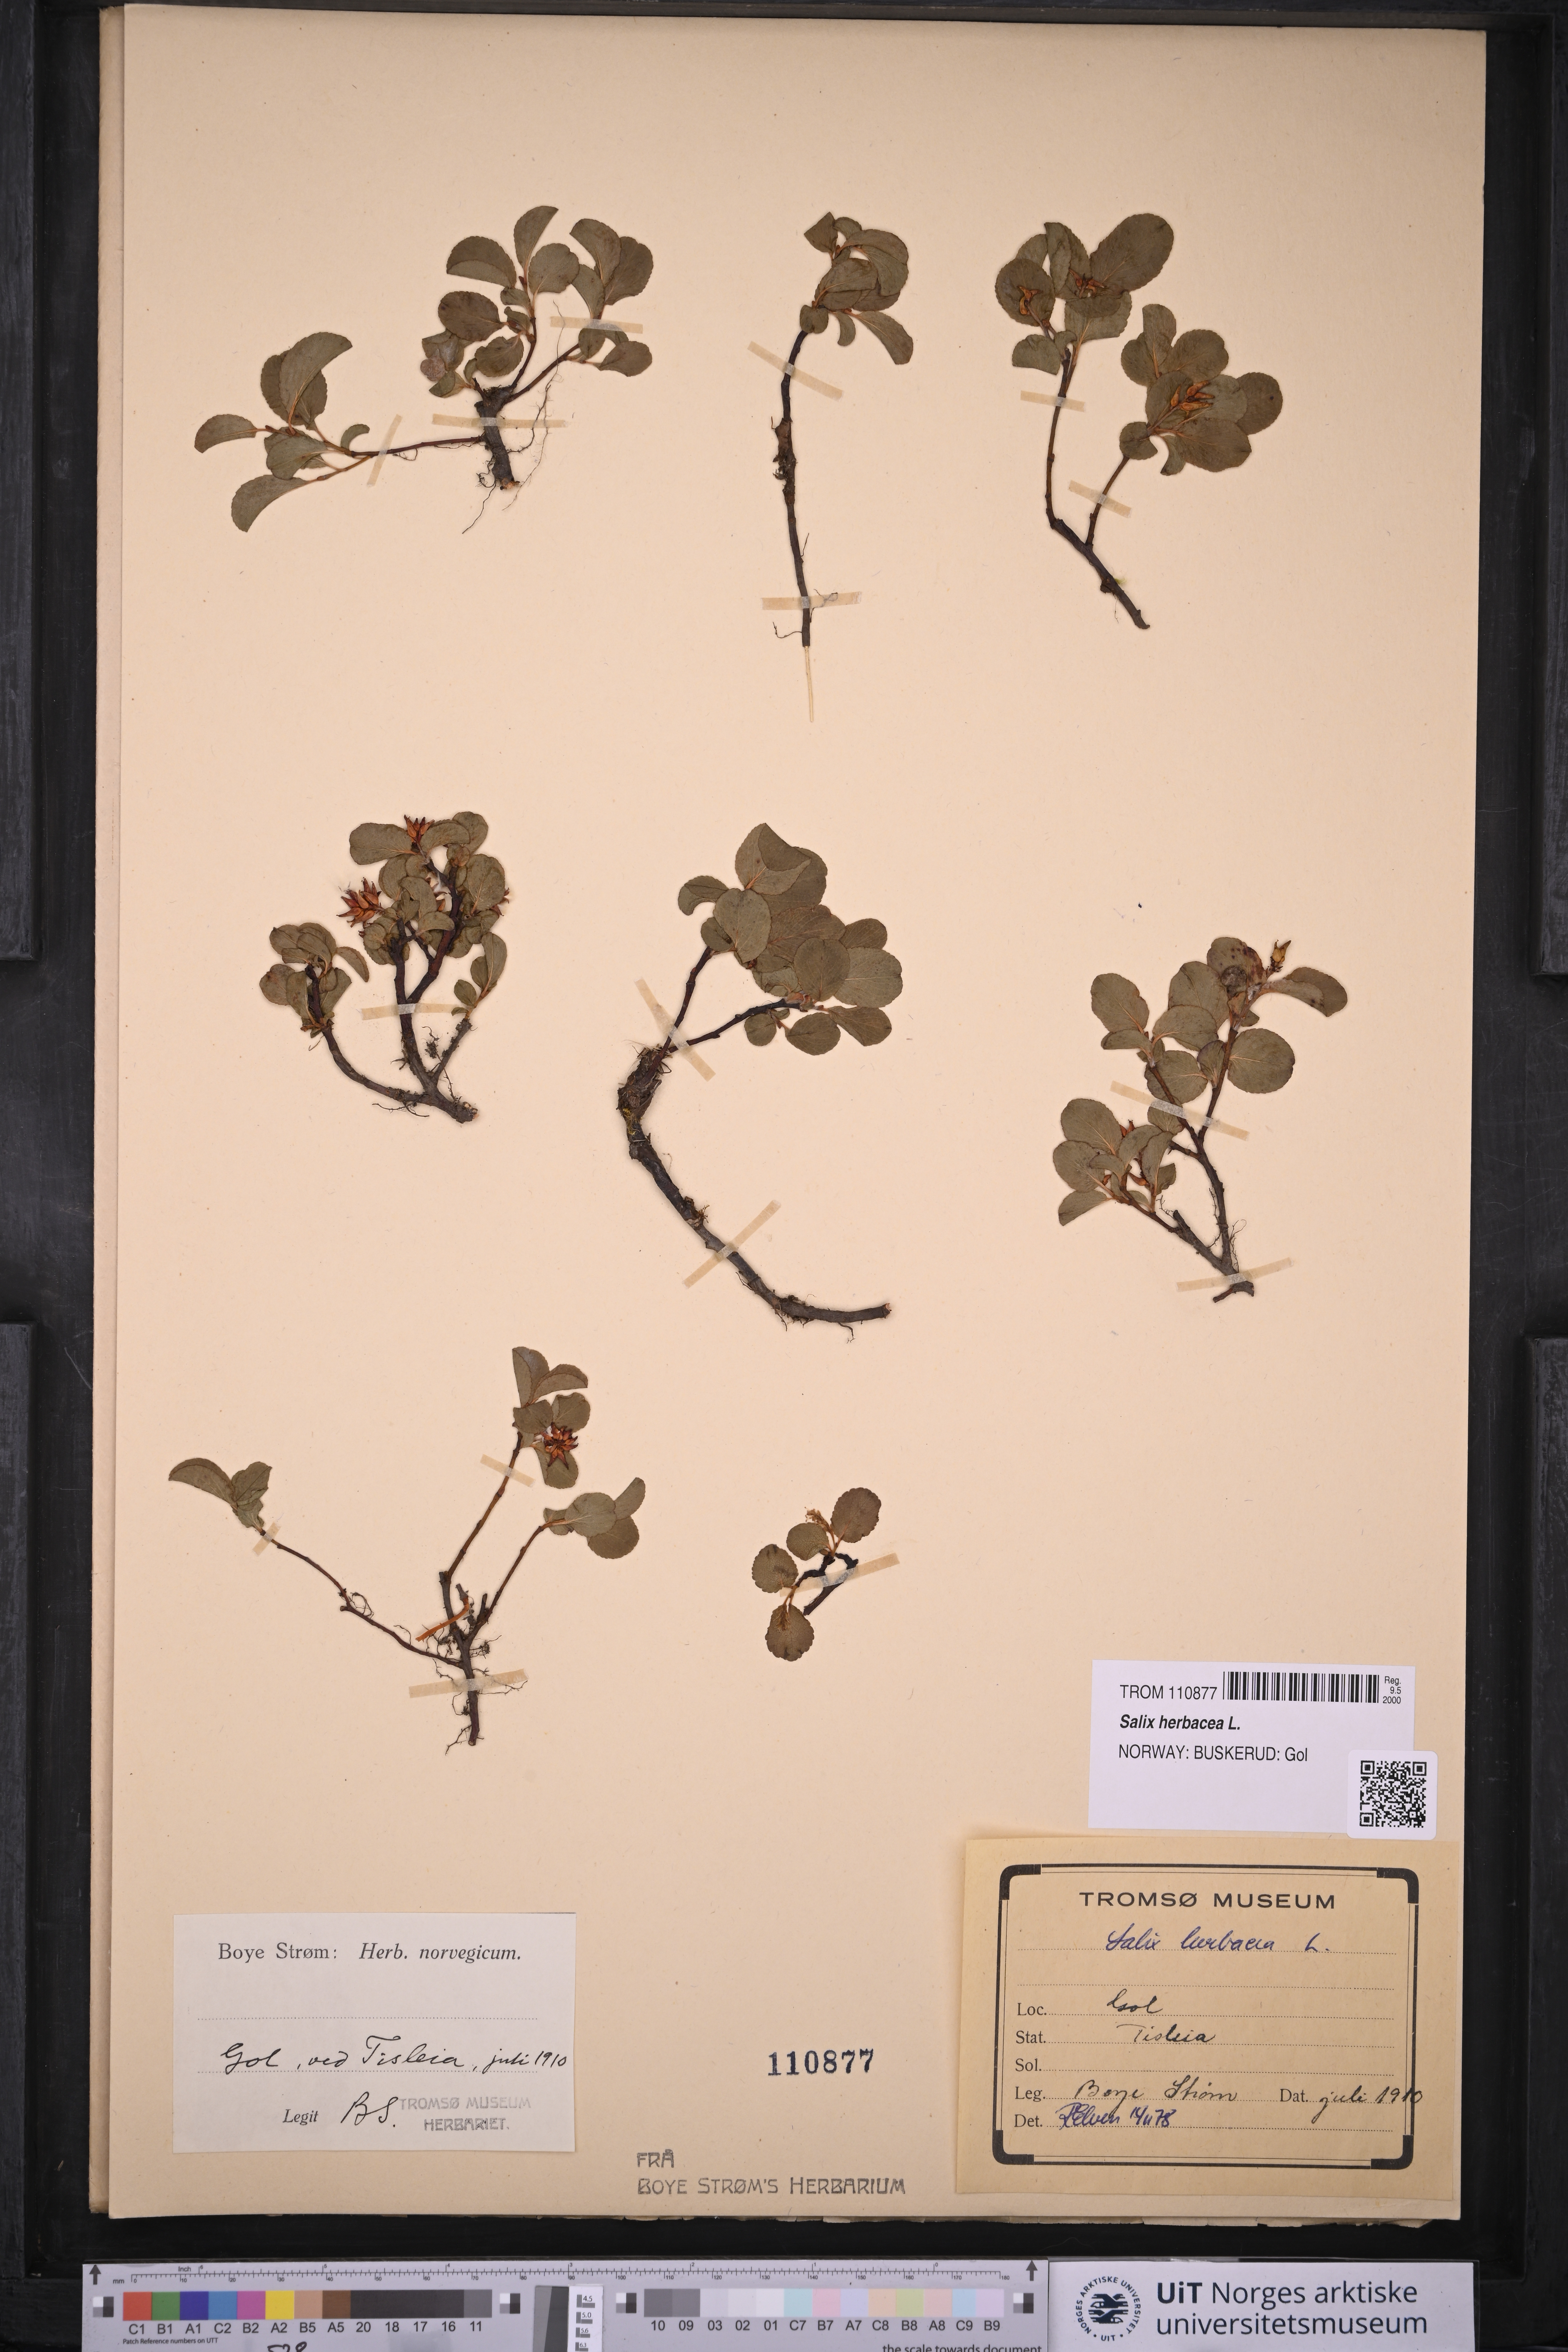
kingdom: Plantae
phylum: Tracheophyta
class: Magnoliopsida
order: Malpighiales
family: Salicaceae
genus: Salix
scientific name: Salix herbacea
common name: Dwarf willow
